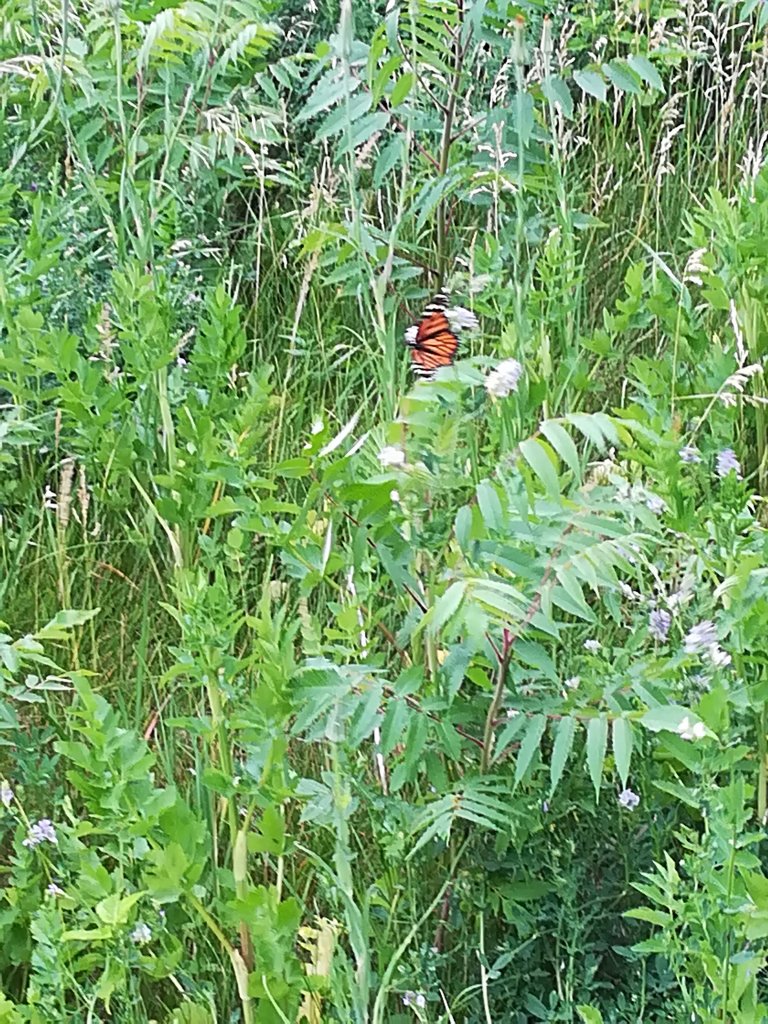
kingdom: Animalia
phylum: Arthropoda
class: Insecta
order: Lepidoptera
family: Nymphalidae
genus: Danaus
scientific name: Danaus plexippus
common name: Monarch
